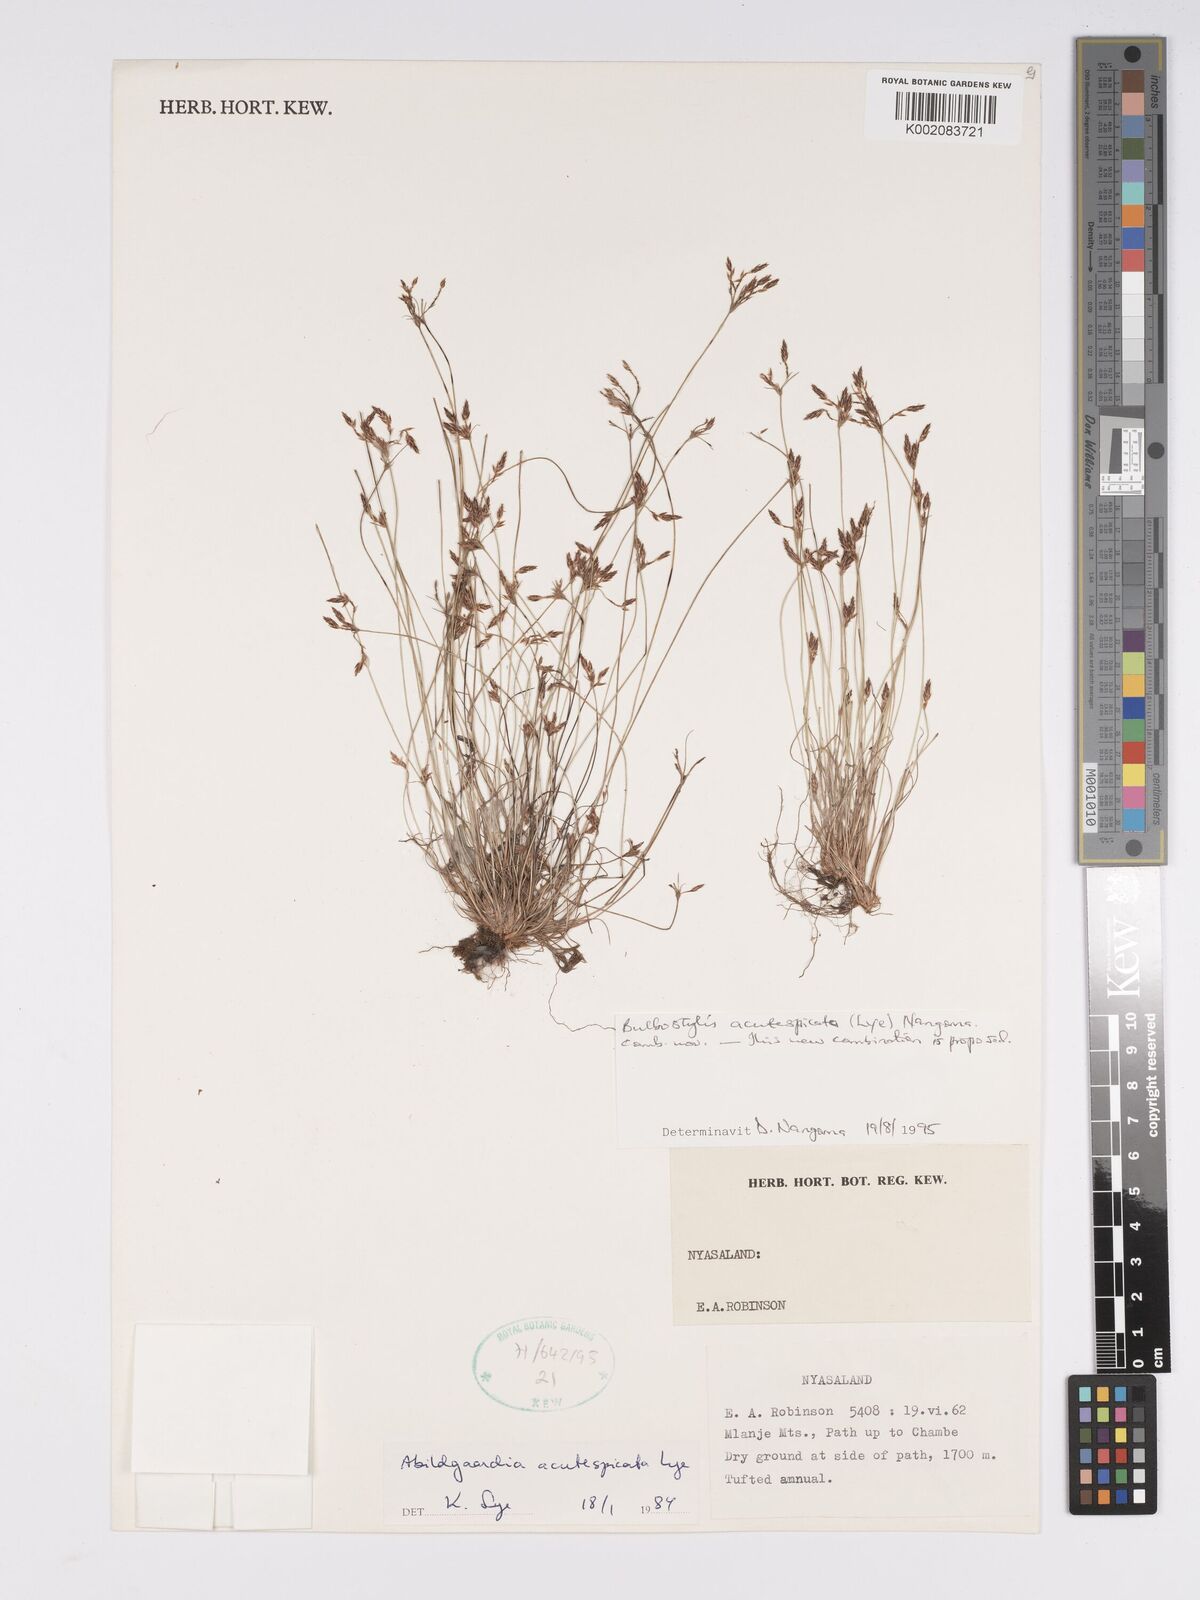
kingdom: Plantae
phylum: Tracheophyta
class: Liliopsida
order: Poales
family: Cyperaceae
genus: Bulbostylis
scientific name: Bulbostylis acutespicata
